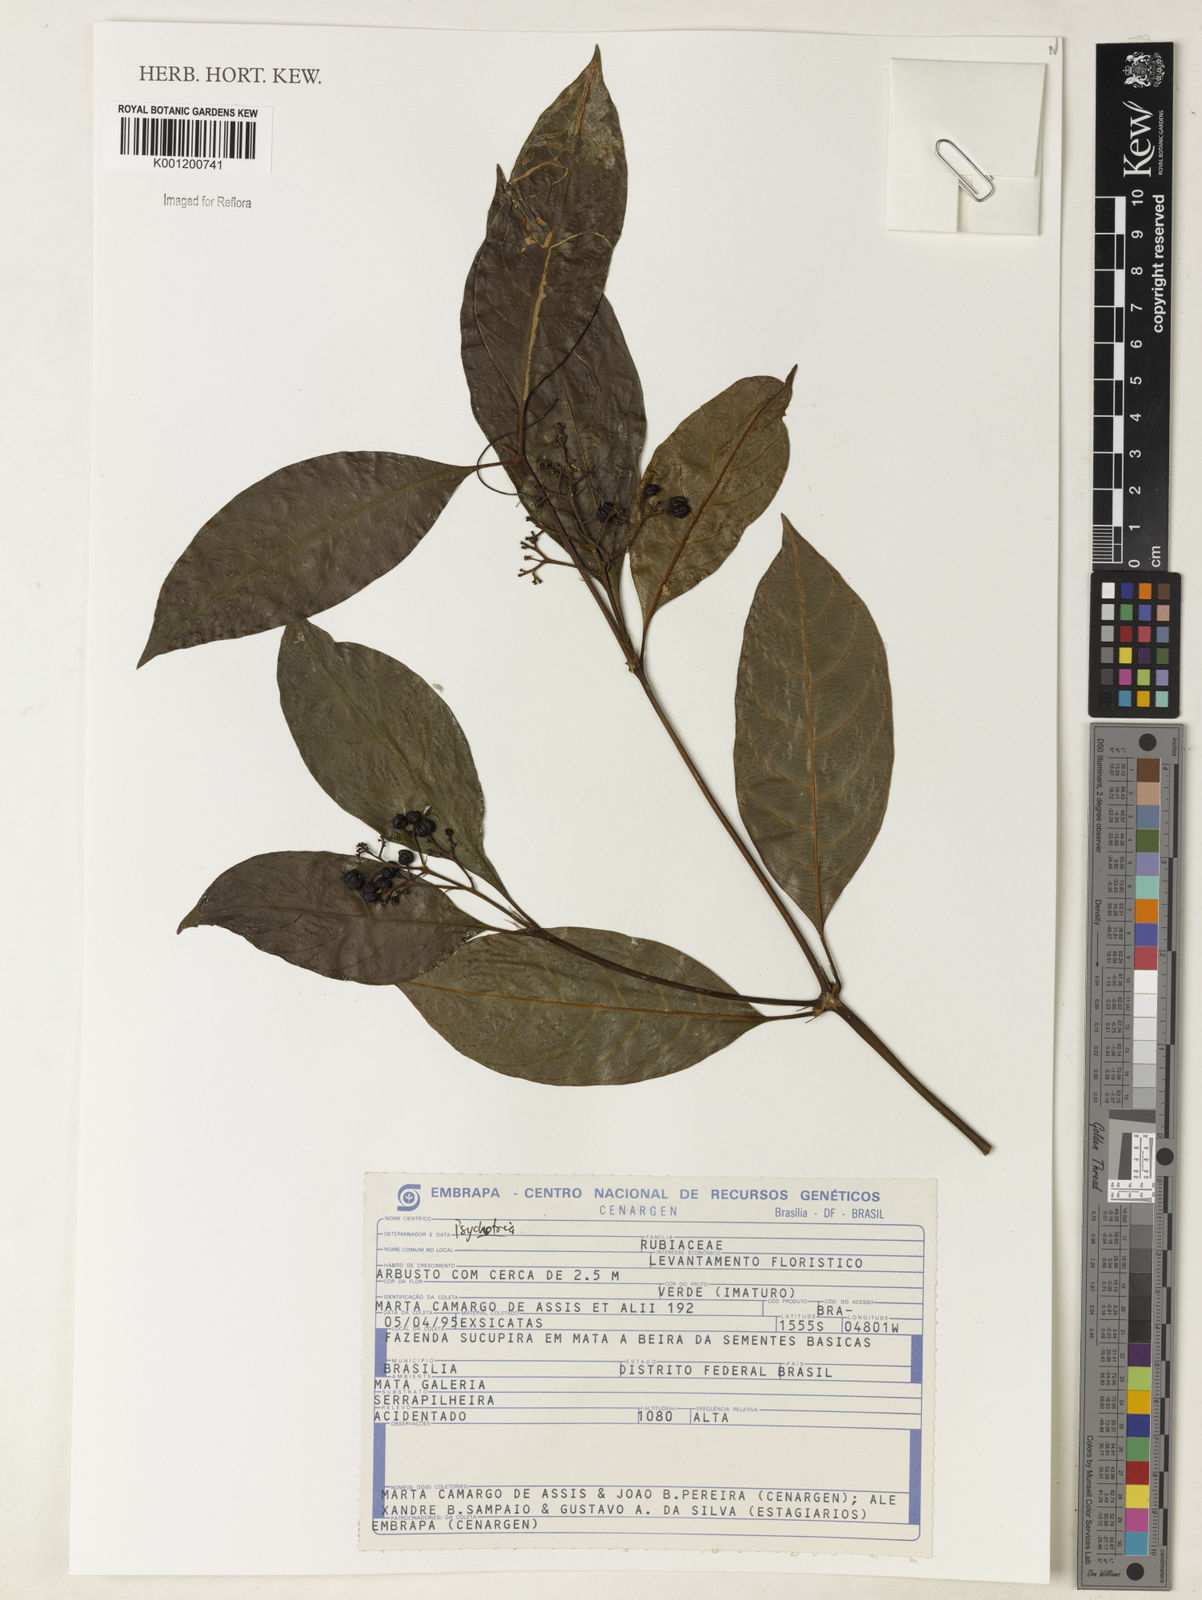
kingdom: Plantae
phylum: Tracheophyta
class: Magnoliopsida
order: Gentianales
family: Rubiaceae
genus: Psychotria
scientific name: Psychotria
